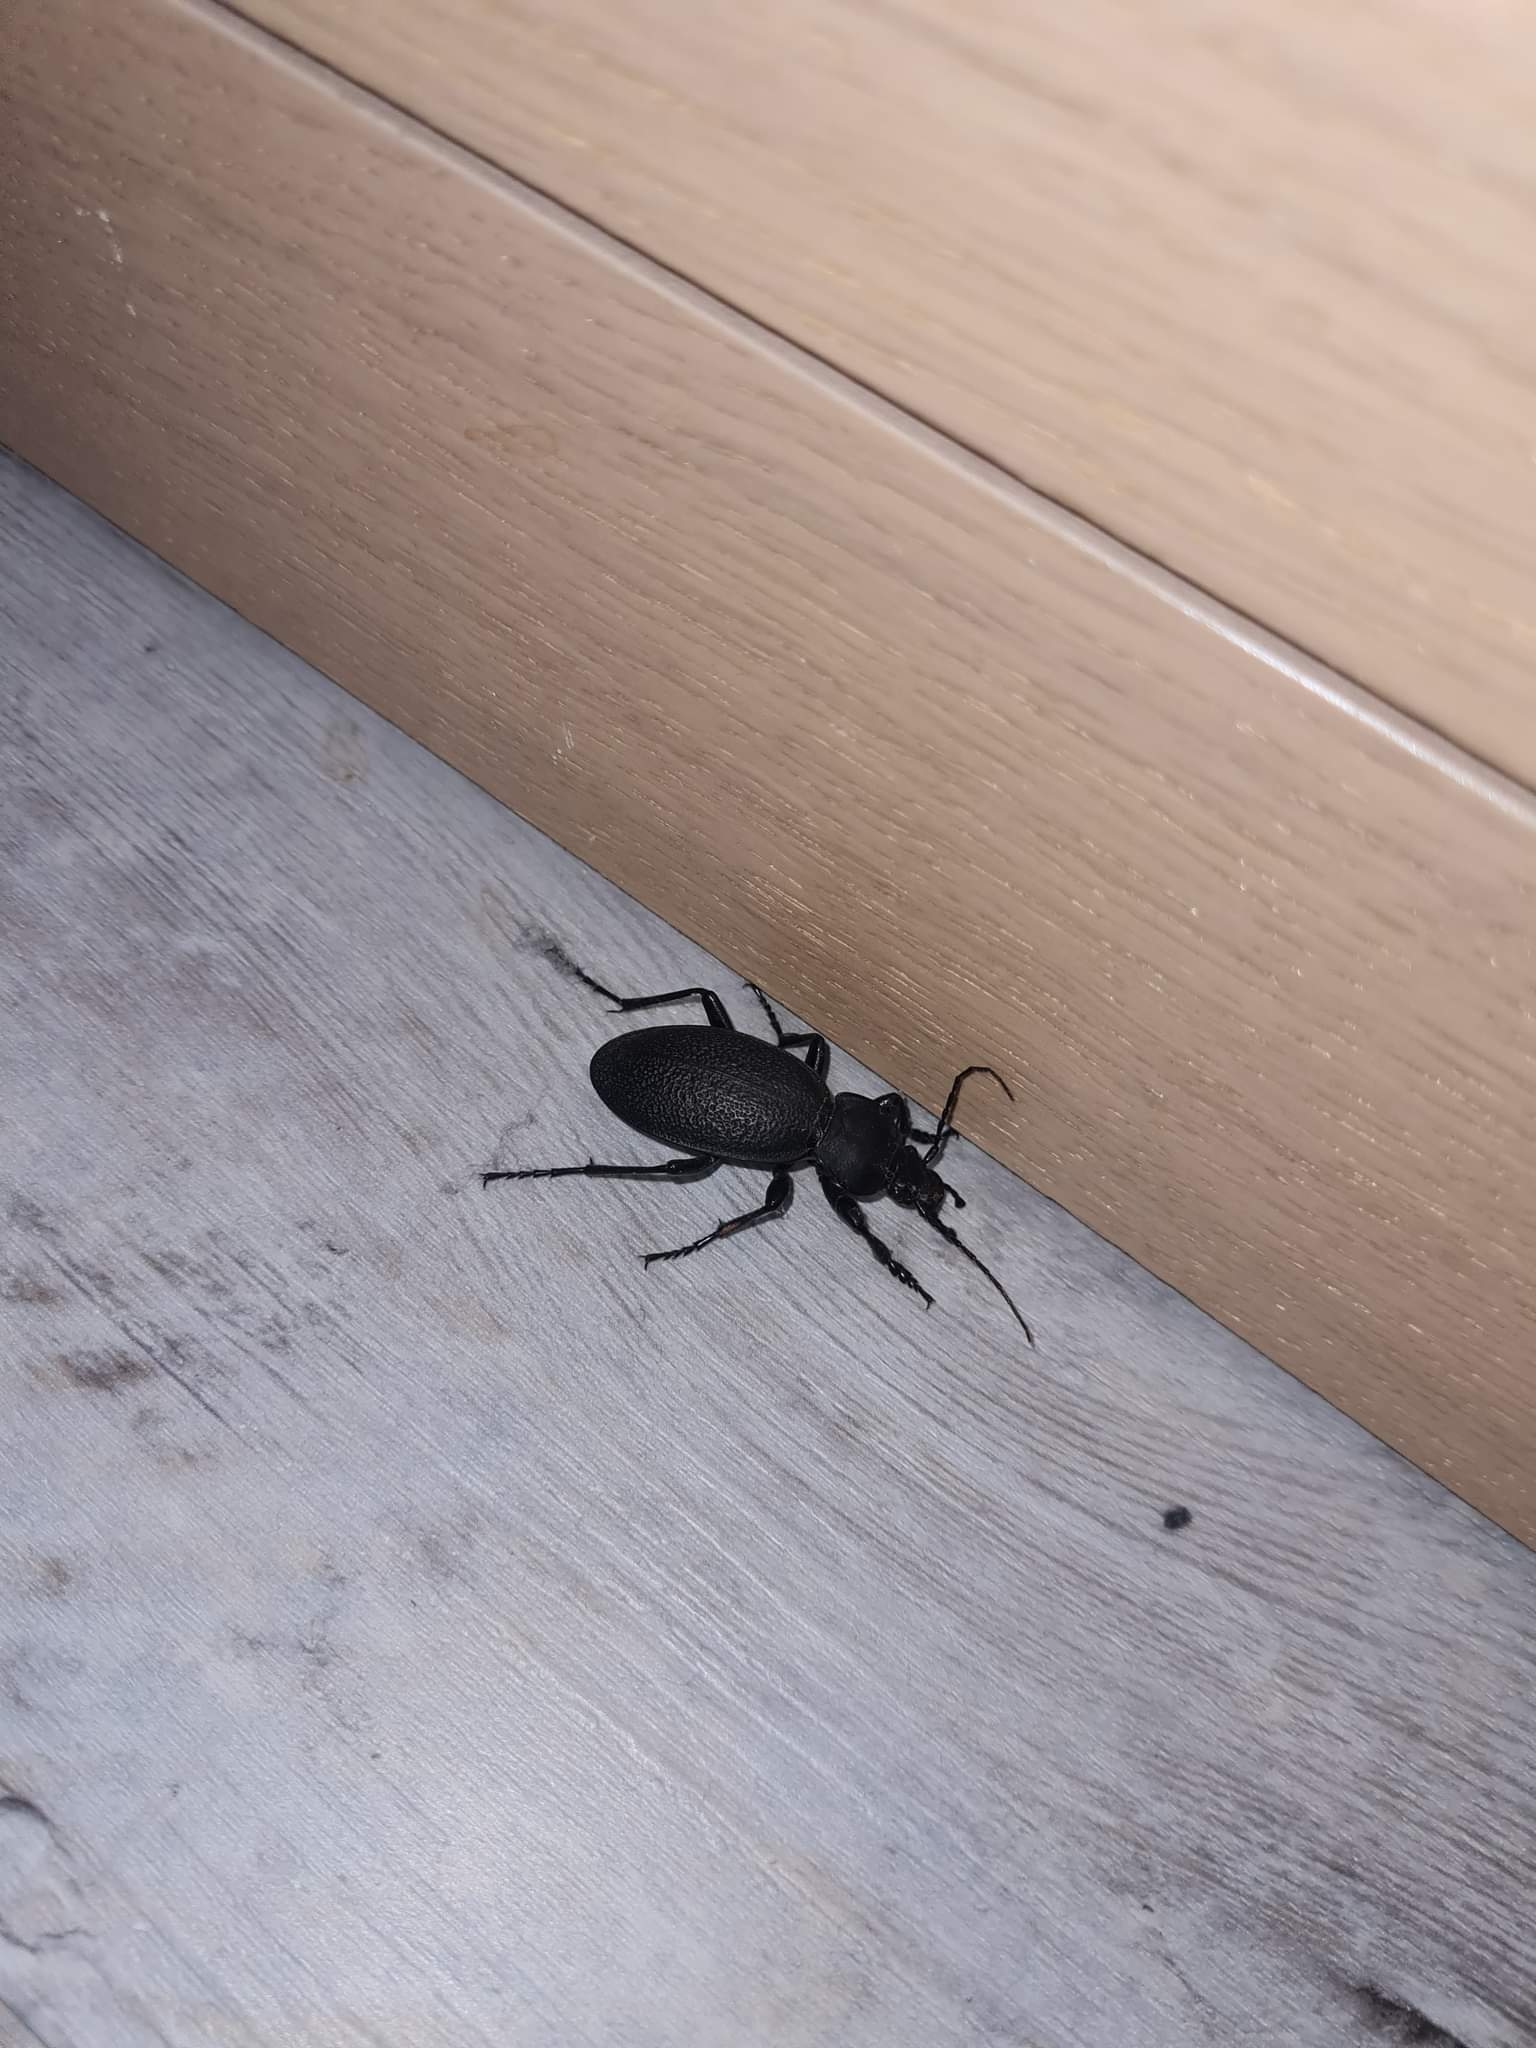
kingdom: Animalia
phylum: Arthropoda
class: Insecta
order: Coleoptera
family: Carabidae
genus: Carabus
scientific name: Carabus coriaceus
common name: Læderløber
